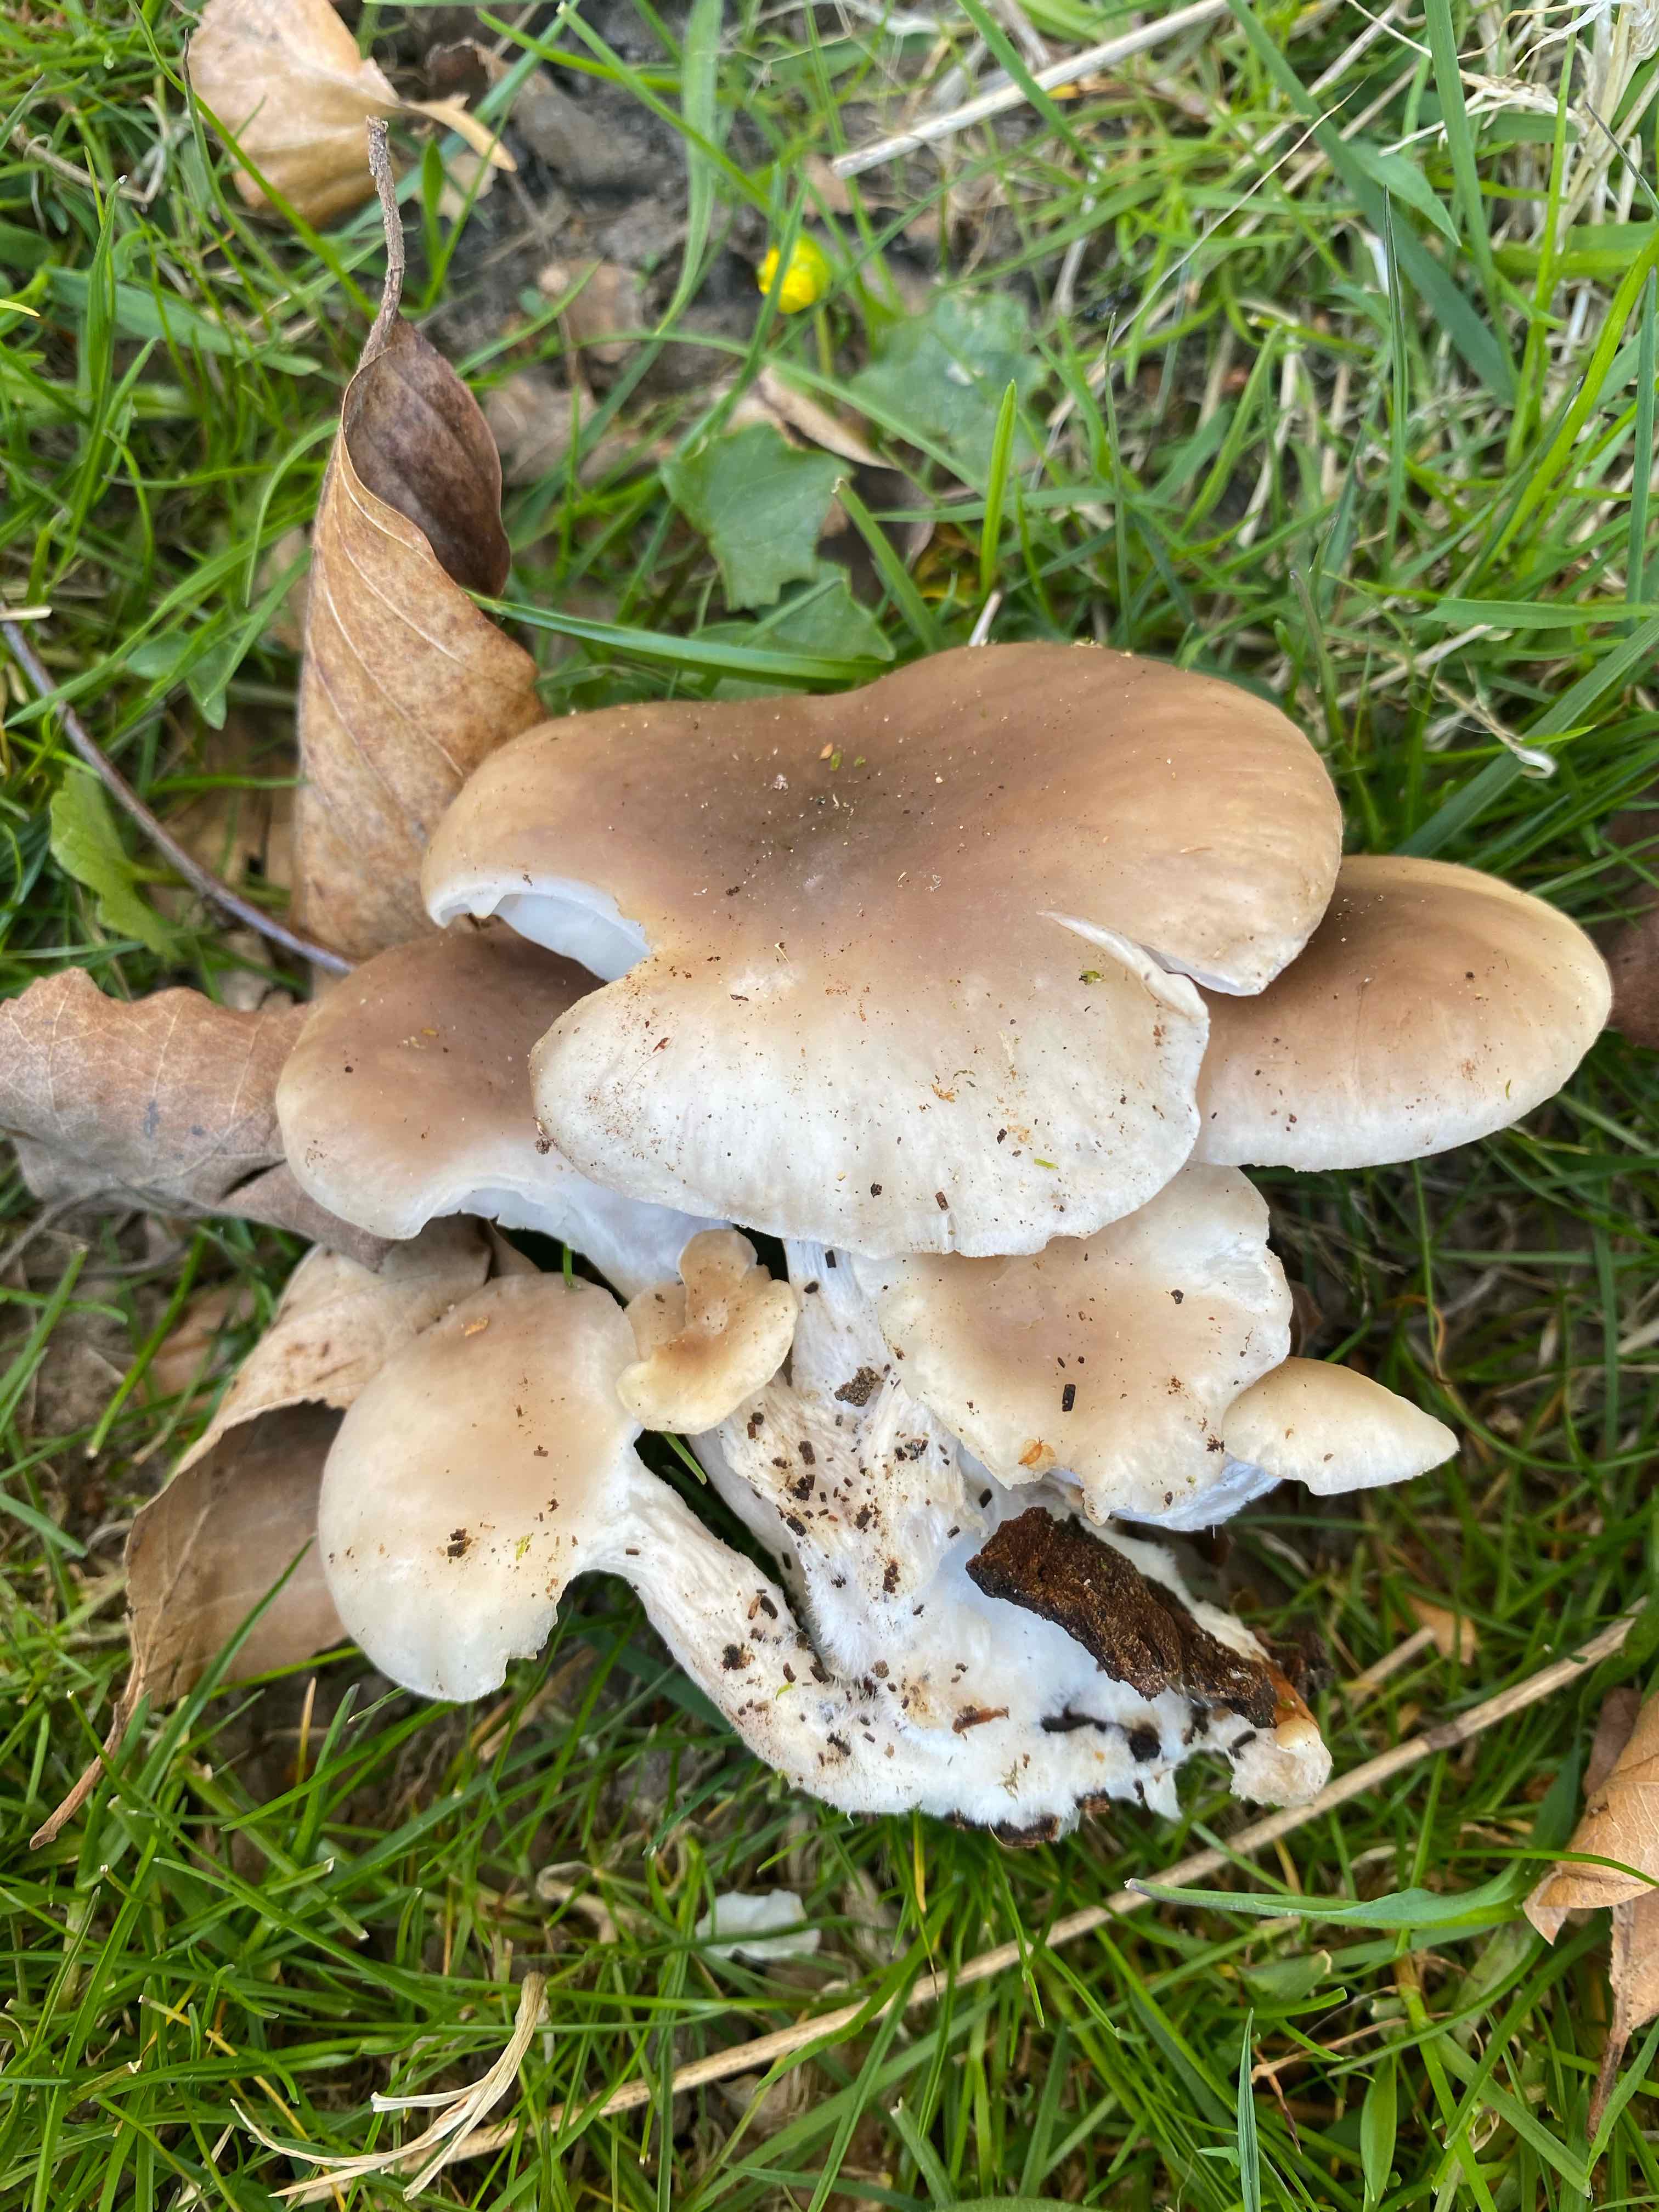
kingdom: Fungi
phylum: Basidiomycota
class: Agaricomycetes
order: Agaricales
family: Pleurotaceae
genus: Pleurotus
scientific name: Pleurotus ostreatus
